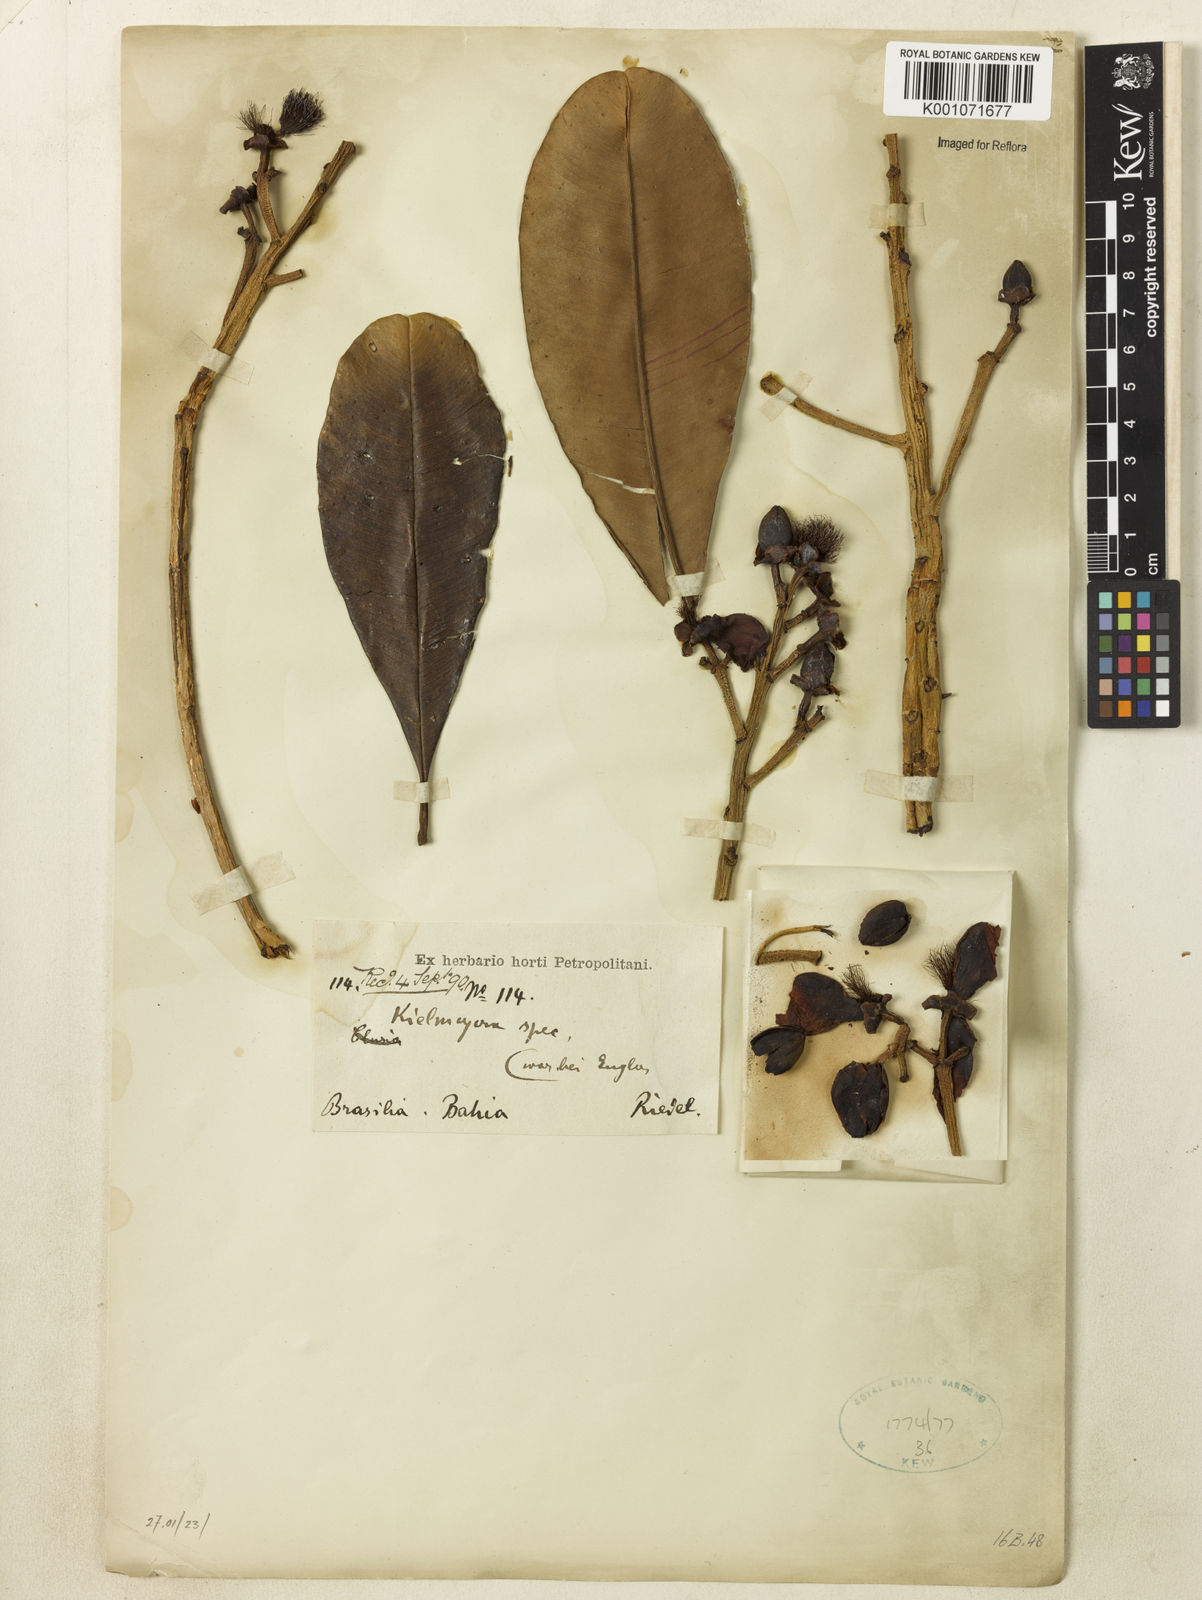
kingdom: Plantae
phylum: Tracheophyta
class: Magnoliopsida
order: Malpighiales
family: Calophyllaceae
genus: Kielmeyera
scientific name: Kielmeyera elata
